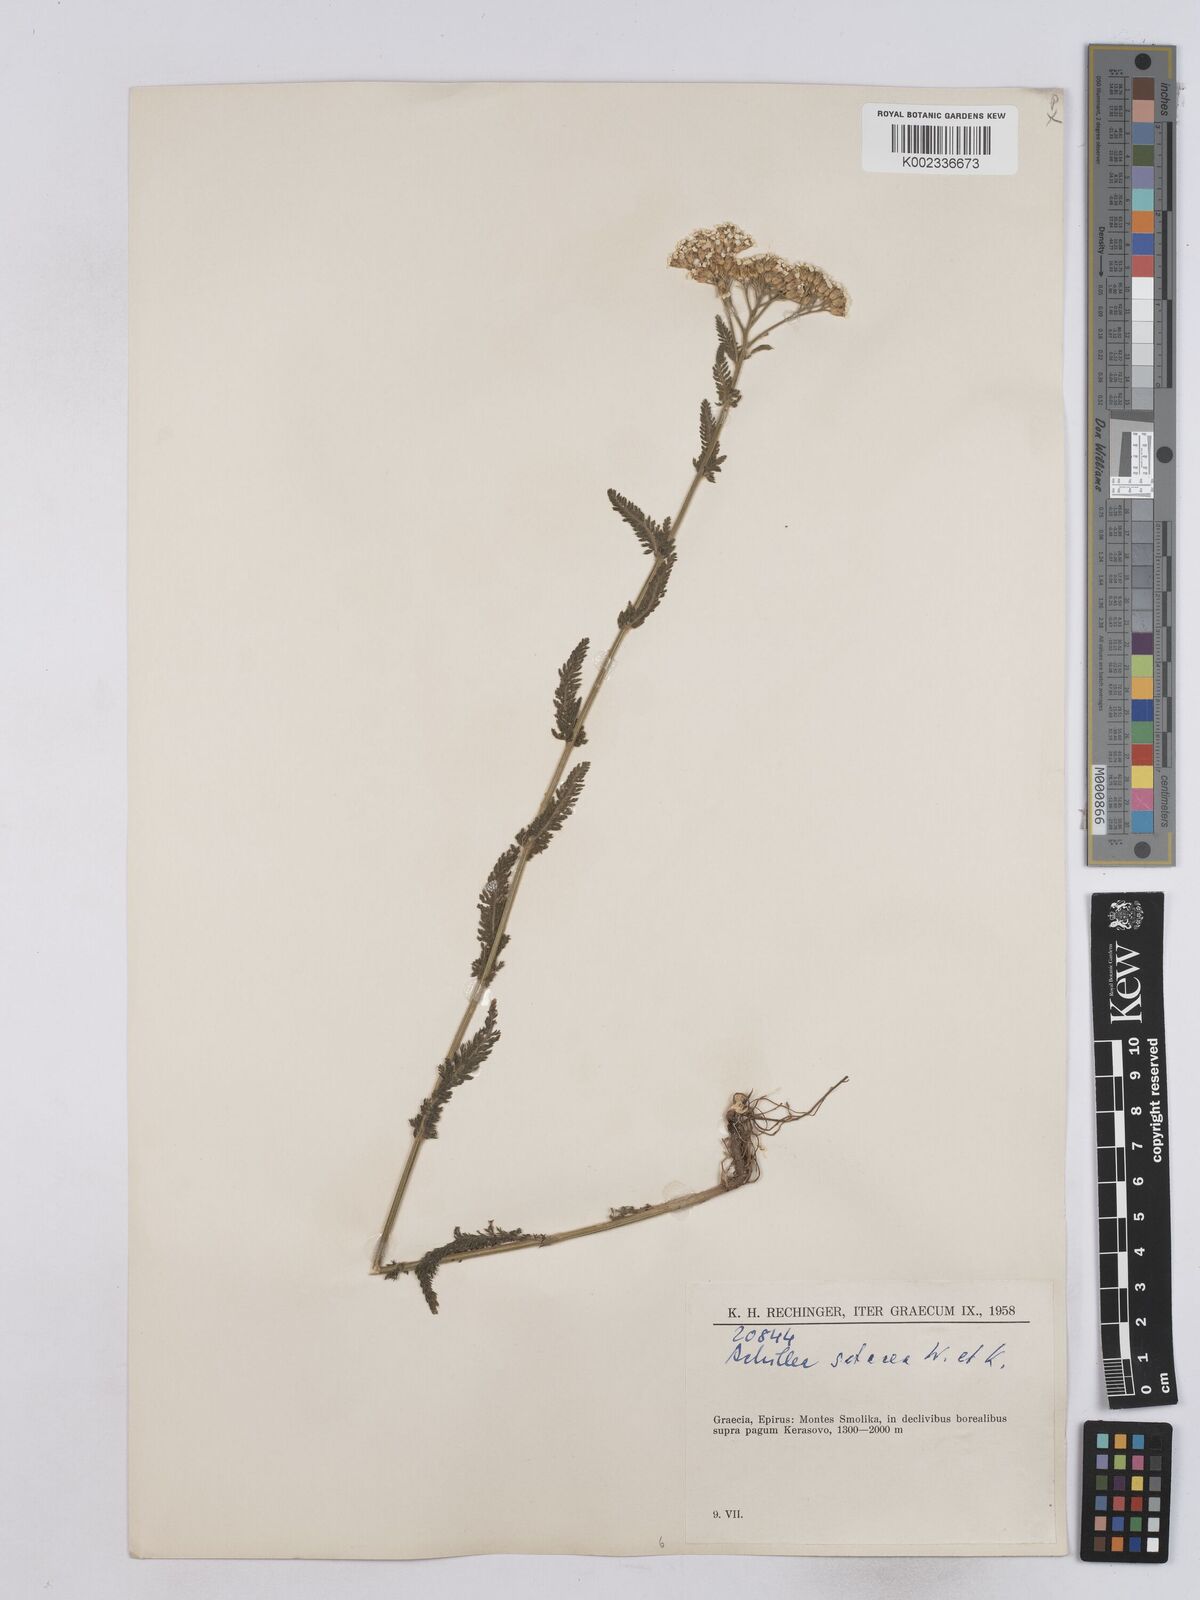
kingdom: Plantae
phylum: Tracheophyta
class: Magnoliopsida
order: Asterales
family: Asteraceae
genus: Achillea
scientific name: Achillea setacea
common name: Bristly yarrow
